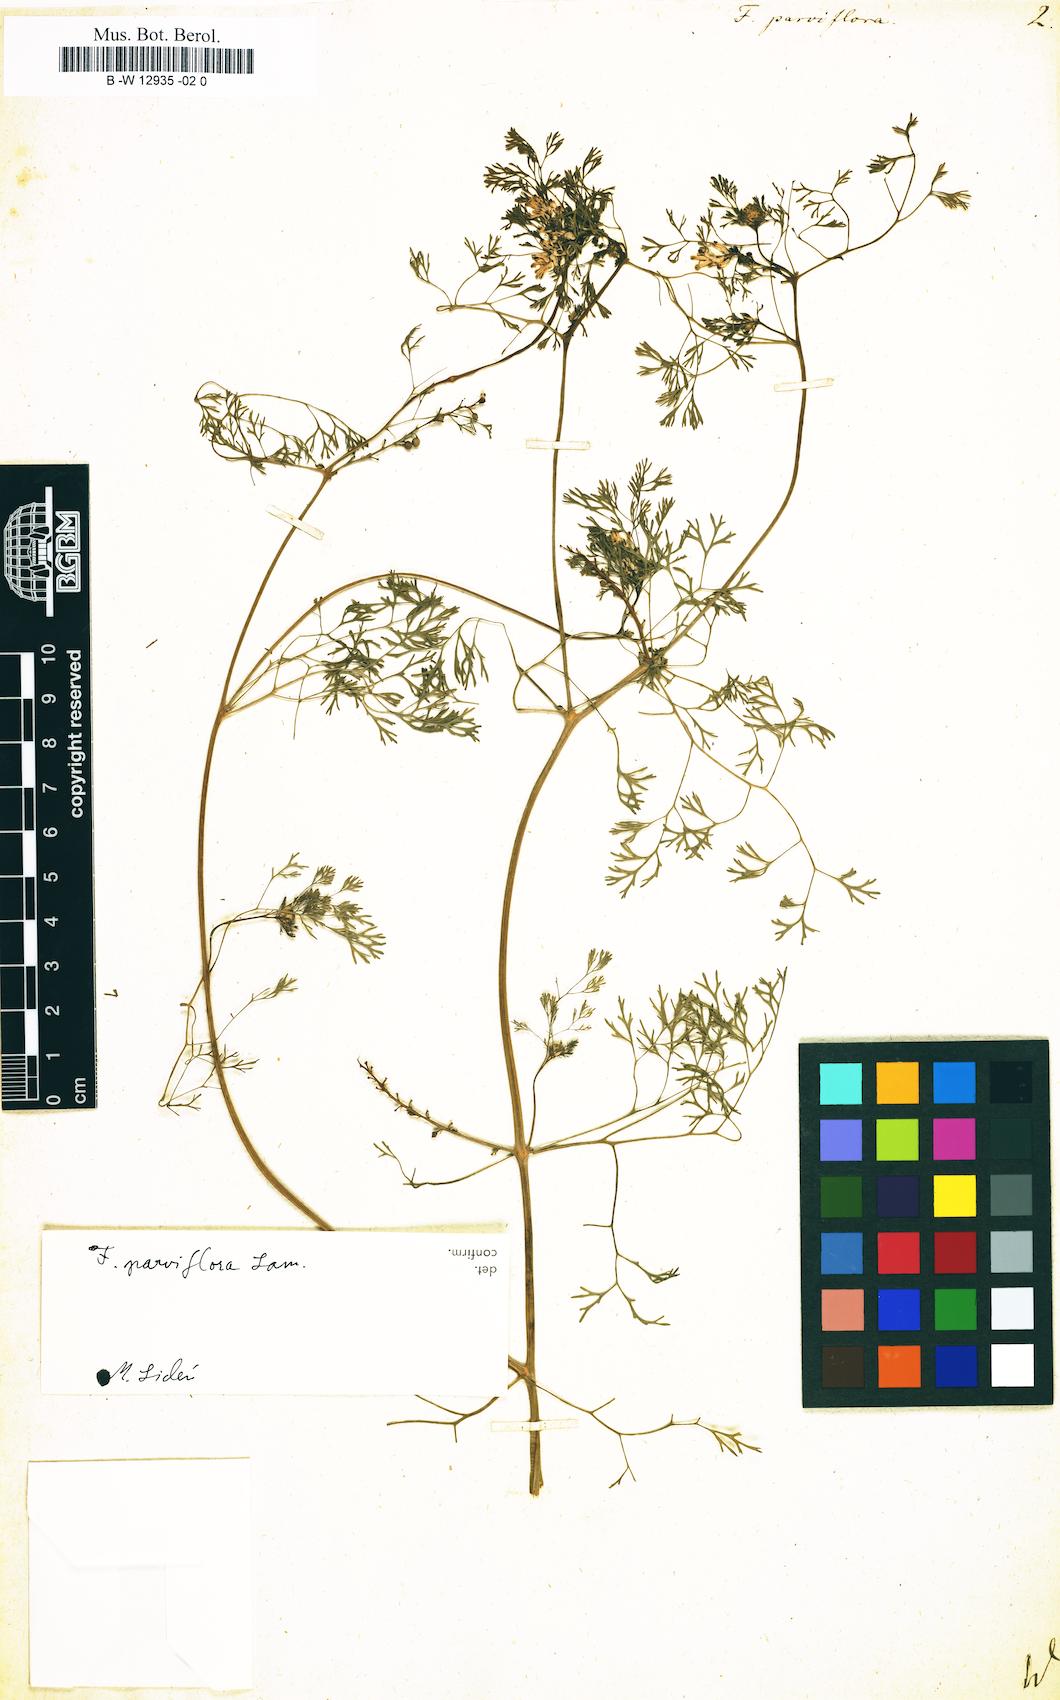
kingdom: Plantae
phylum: Tracheophyta
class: Magnoliopsida
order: Ranunculales
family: Papaveraceae
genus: Fumaria
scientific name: Fumaria parviflora
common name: Fine-leaved fumitory
